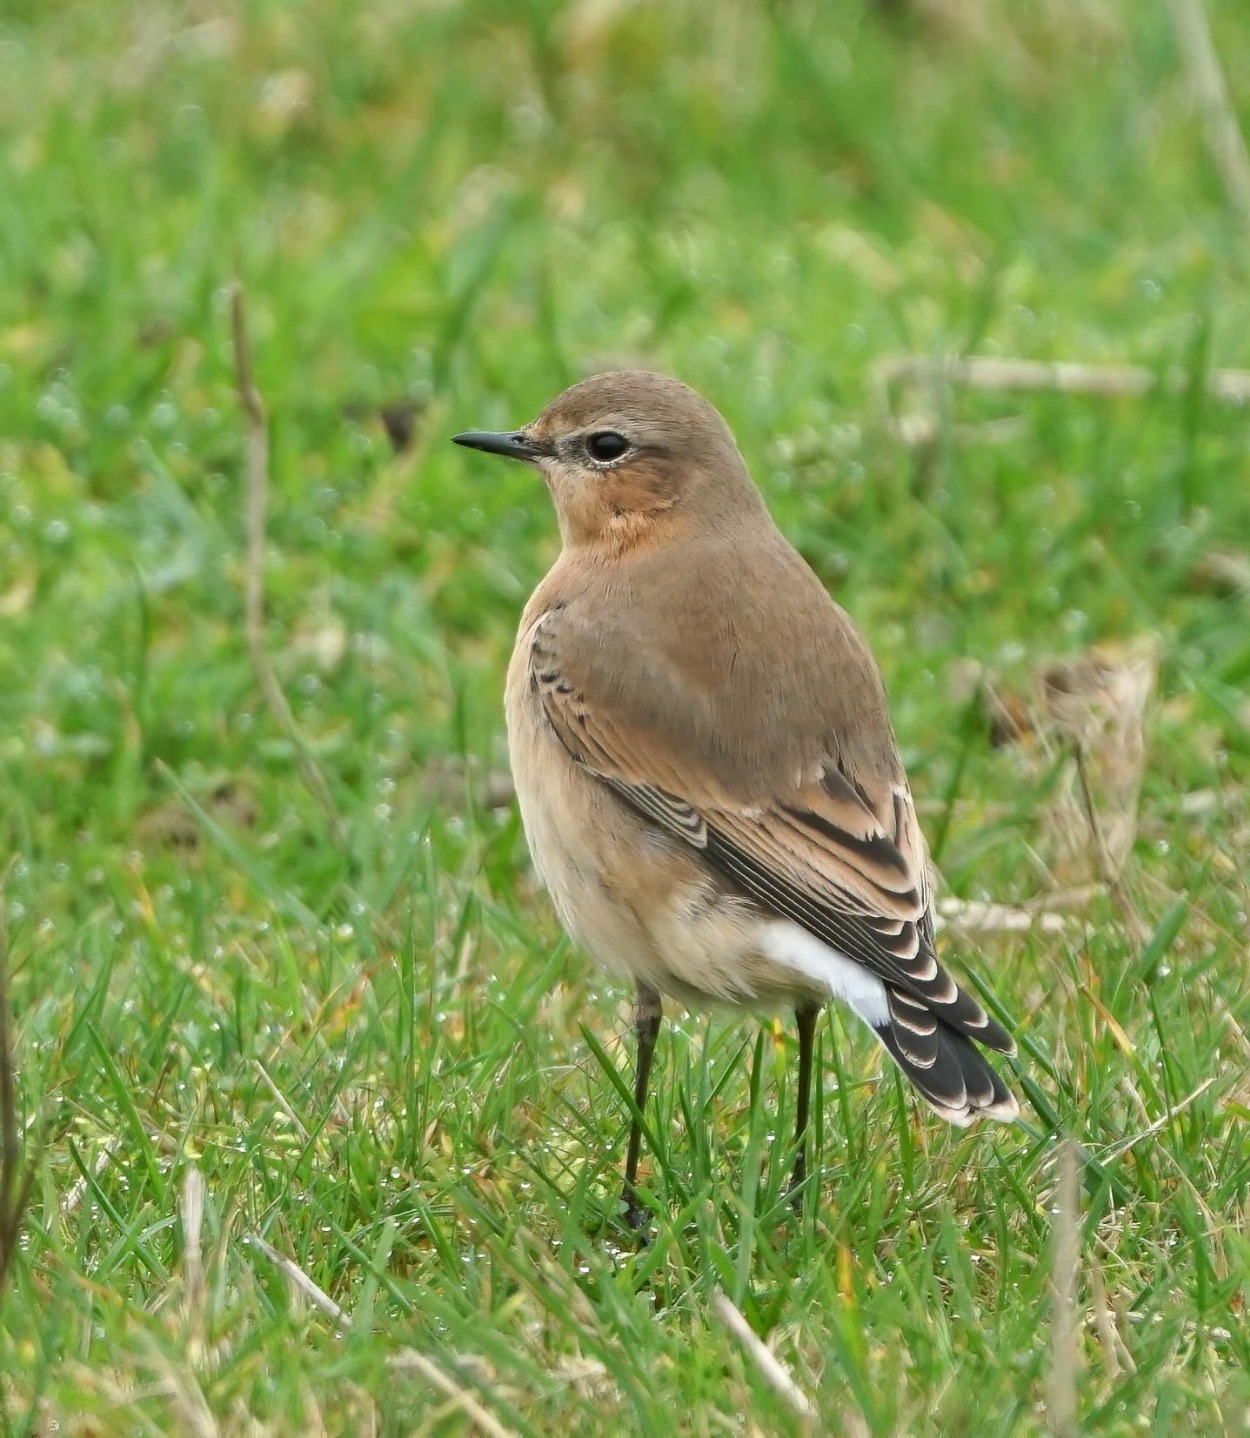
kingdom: Animalia
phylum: Chordata
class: Aves
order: Passeriformes
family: Muscicapidae
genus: Oenanthe
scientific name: Oenanthe oenanthe
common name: Stenpikker
